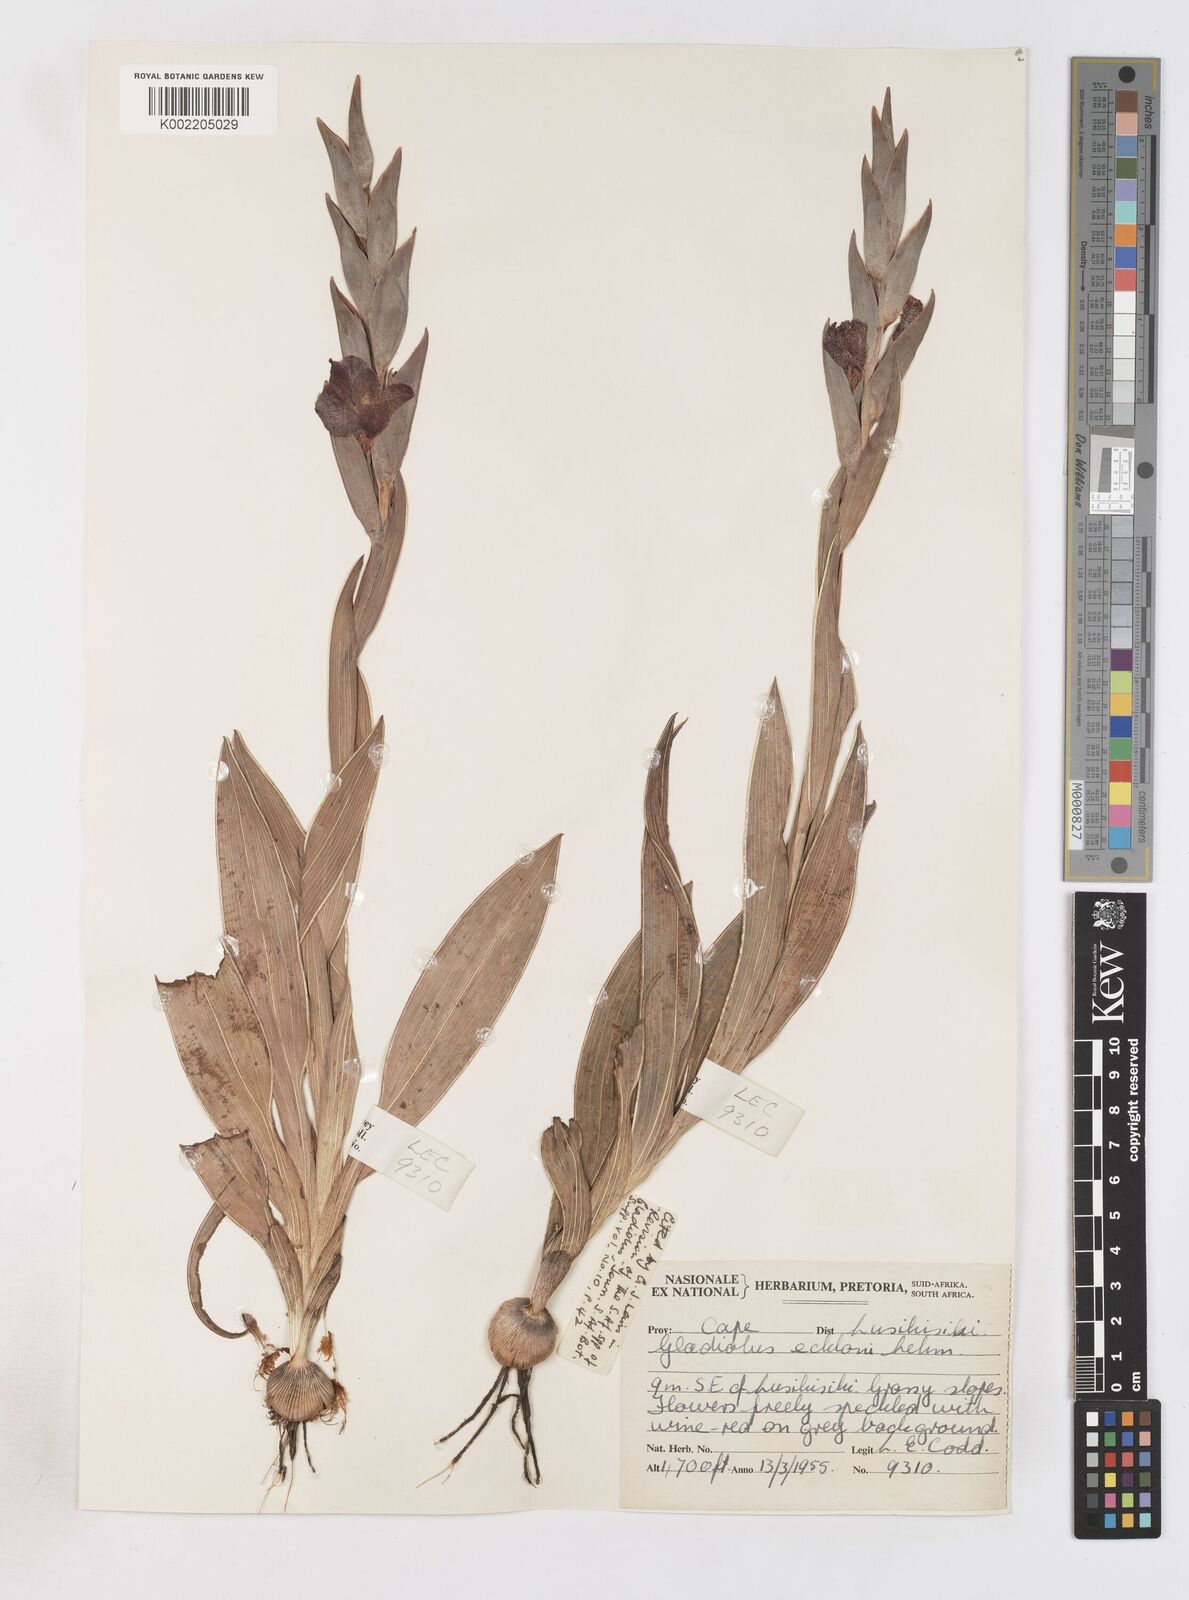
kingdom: Plantae
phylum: Tracheophyta
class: Liliopsida
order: Asparagales
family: Iridaceae
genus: Gladiolus
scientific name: Gladiolus ecklonii
